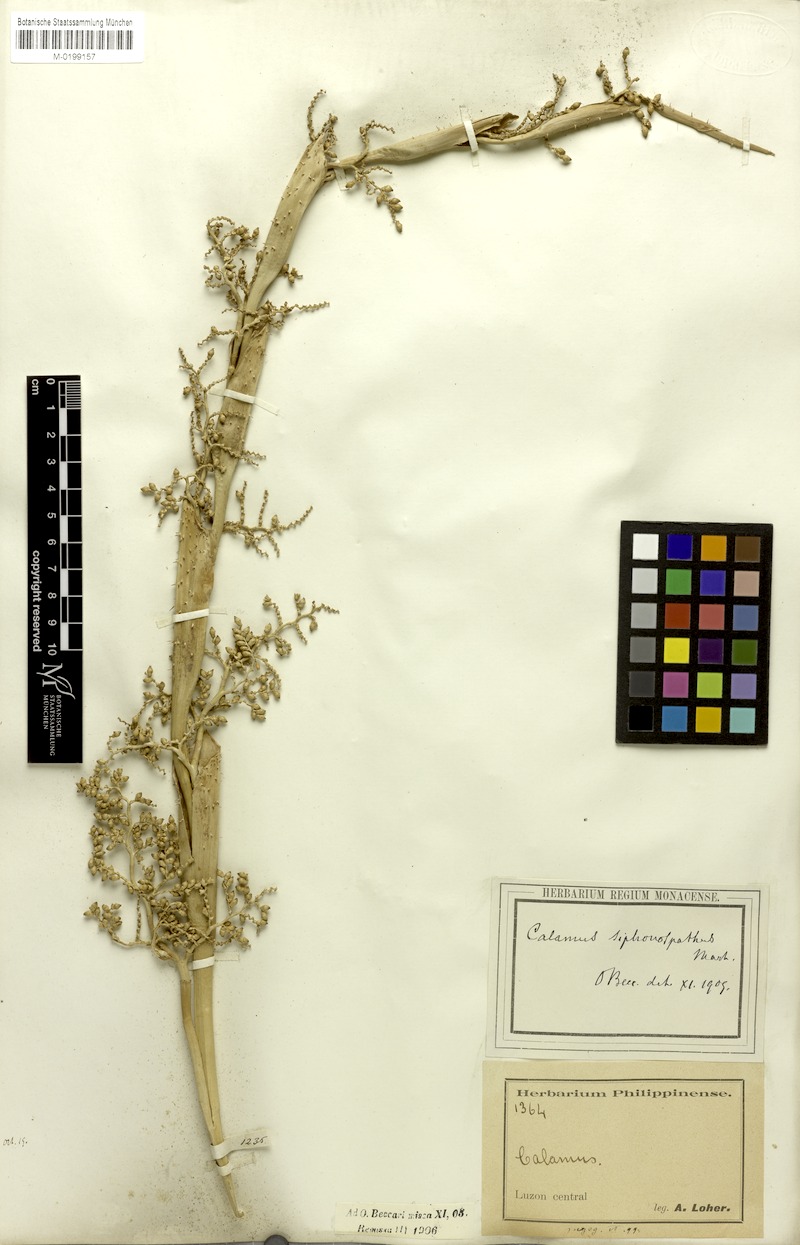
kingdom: Plantae
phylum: Tracheophyta
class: Liliopsida
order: Arecales
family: Arecaceae
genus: Calamus
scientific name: Calamus siphonospathus
